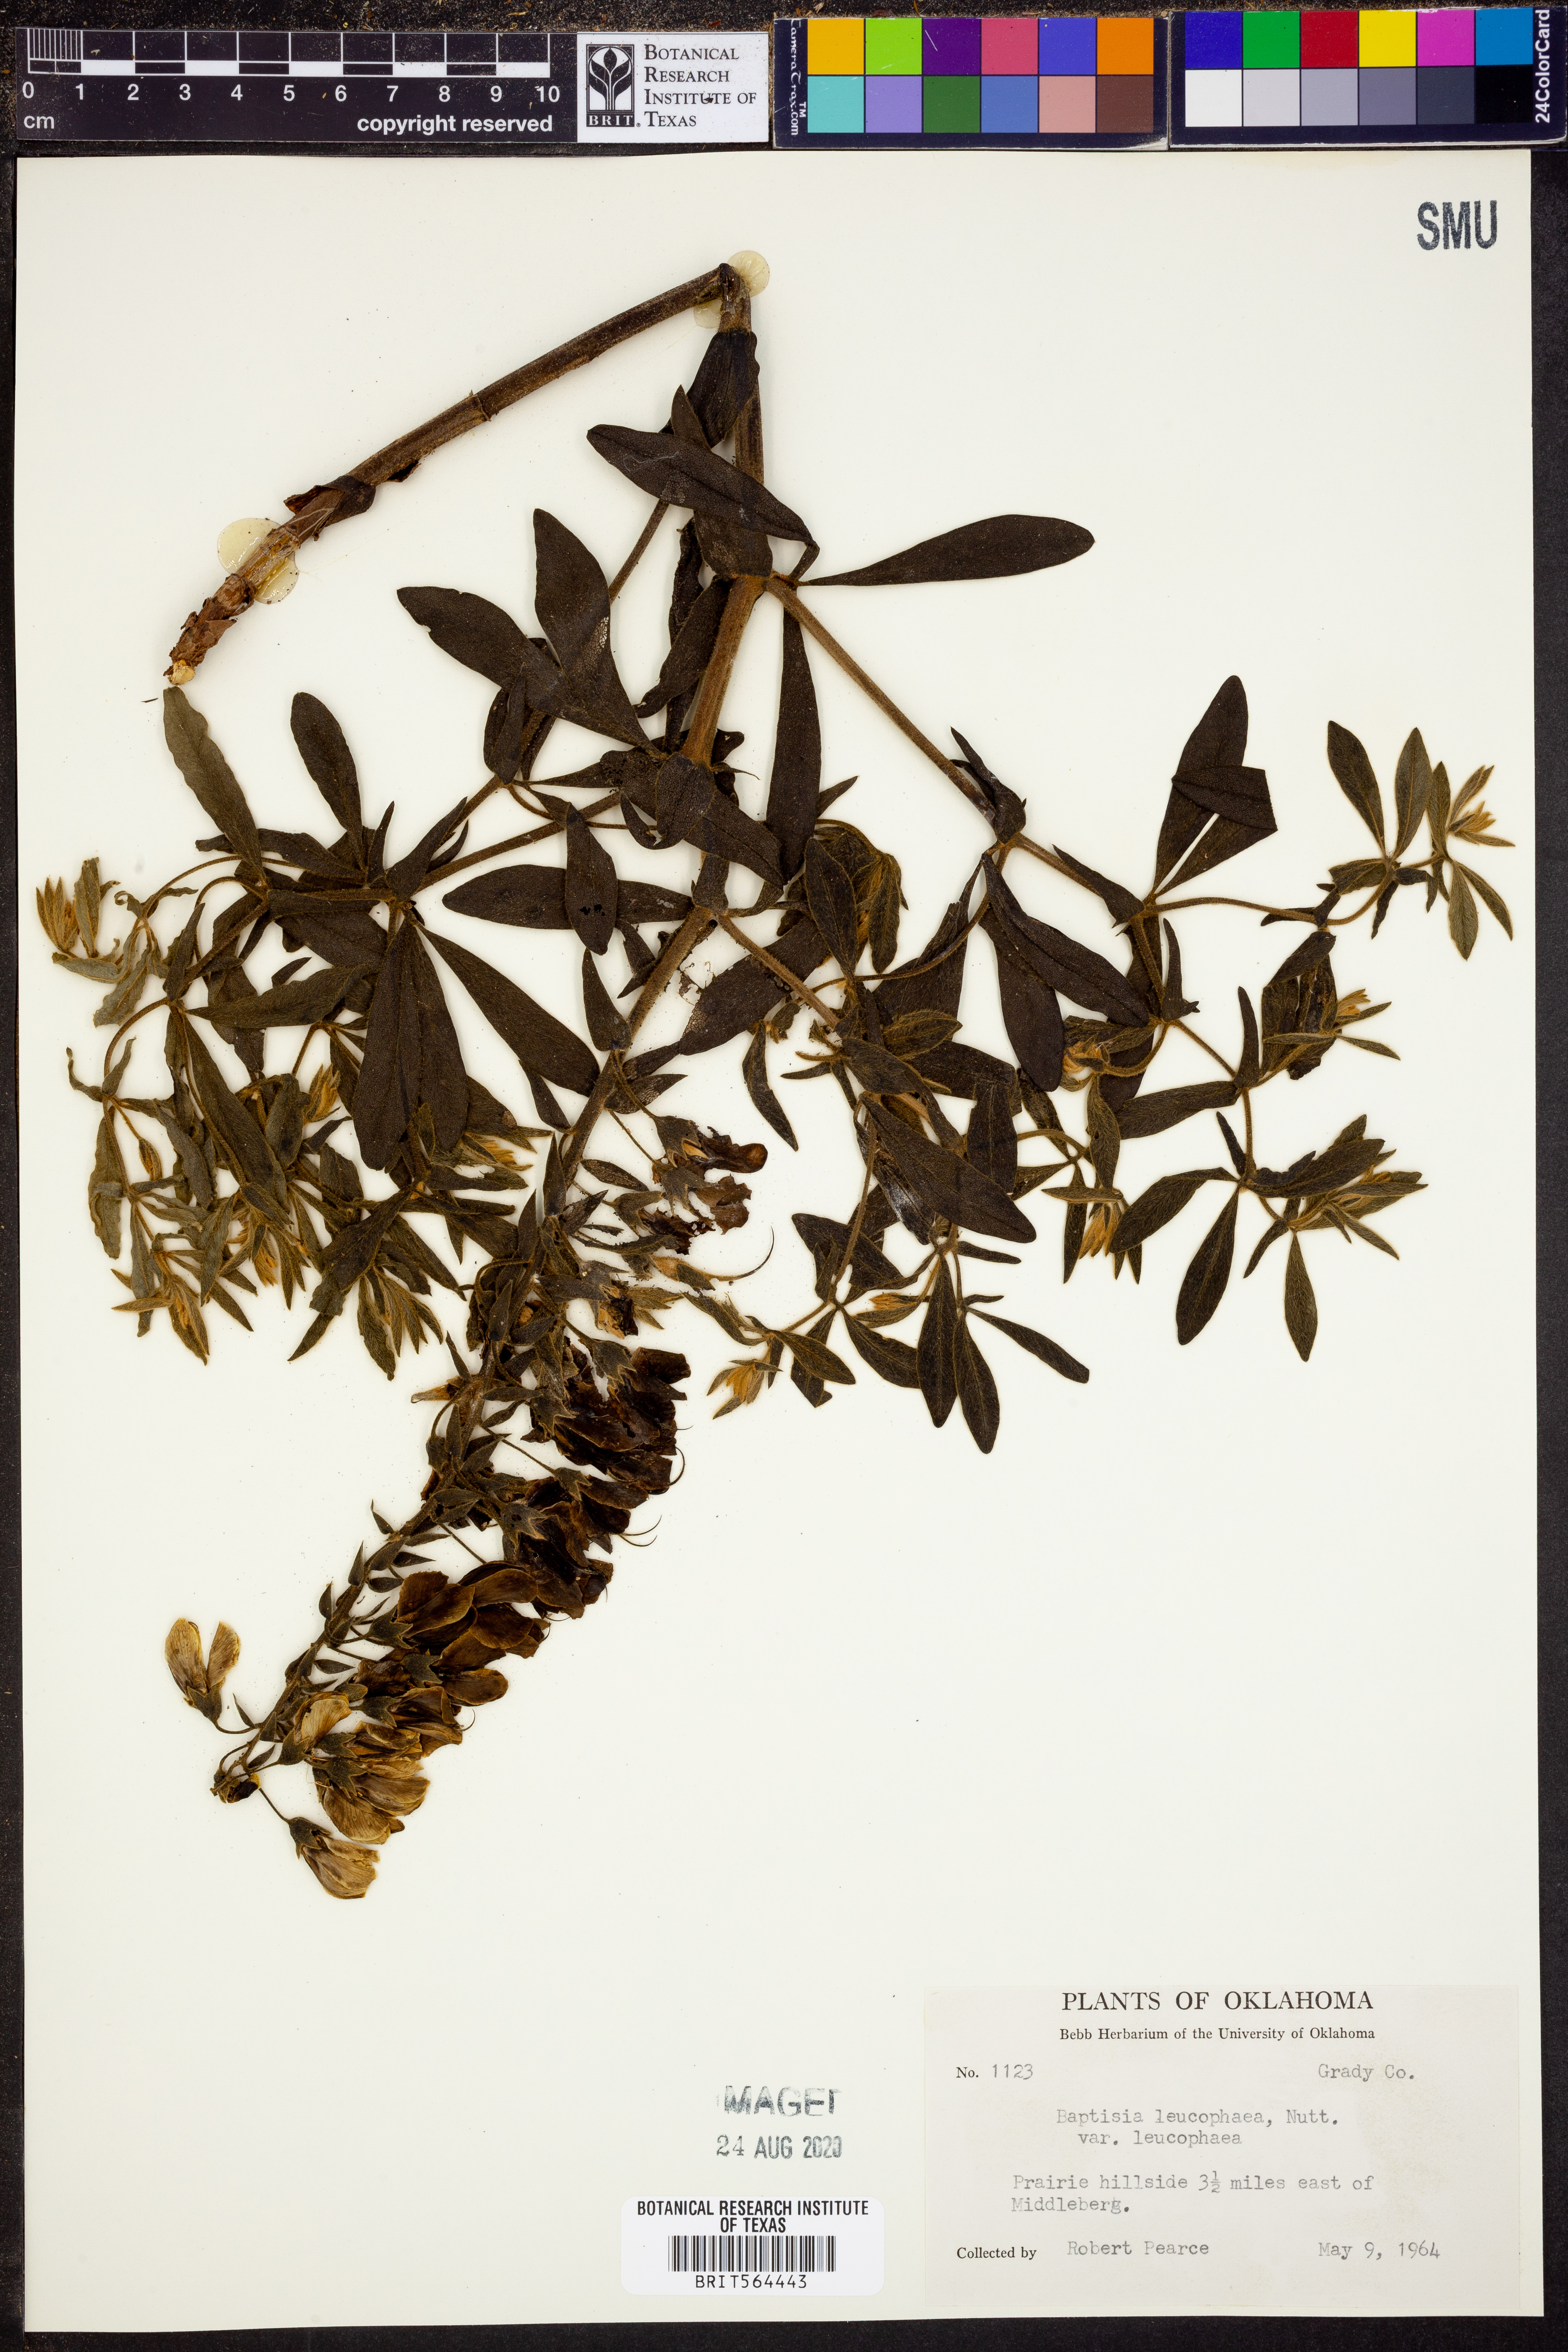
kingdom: Plantae
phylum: Tracheophyta
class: Magnoliopsida
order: Fabales
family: Fabaceae
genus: Baptisia
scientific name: Baptisia bracteata
